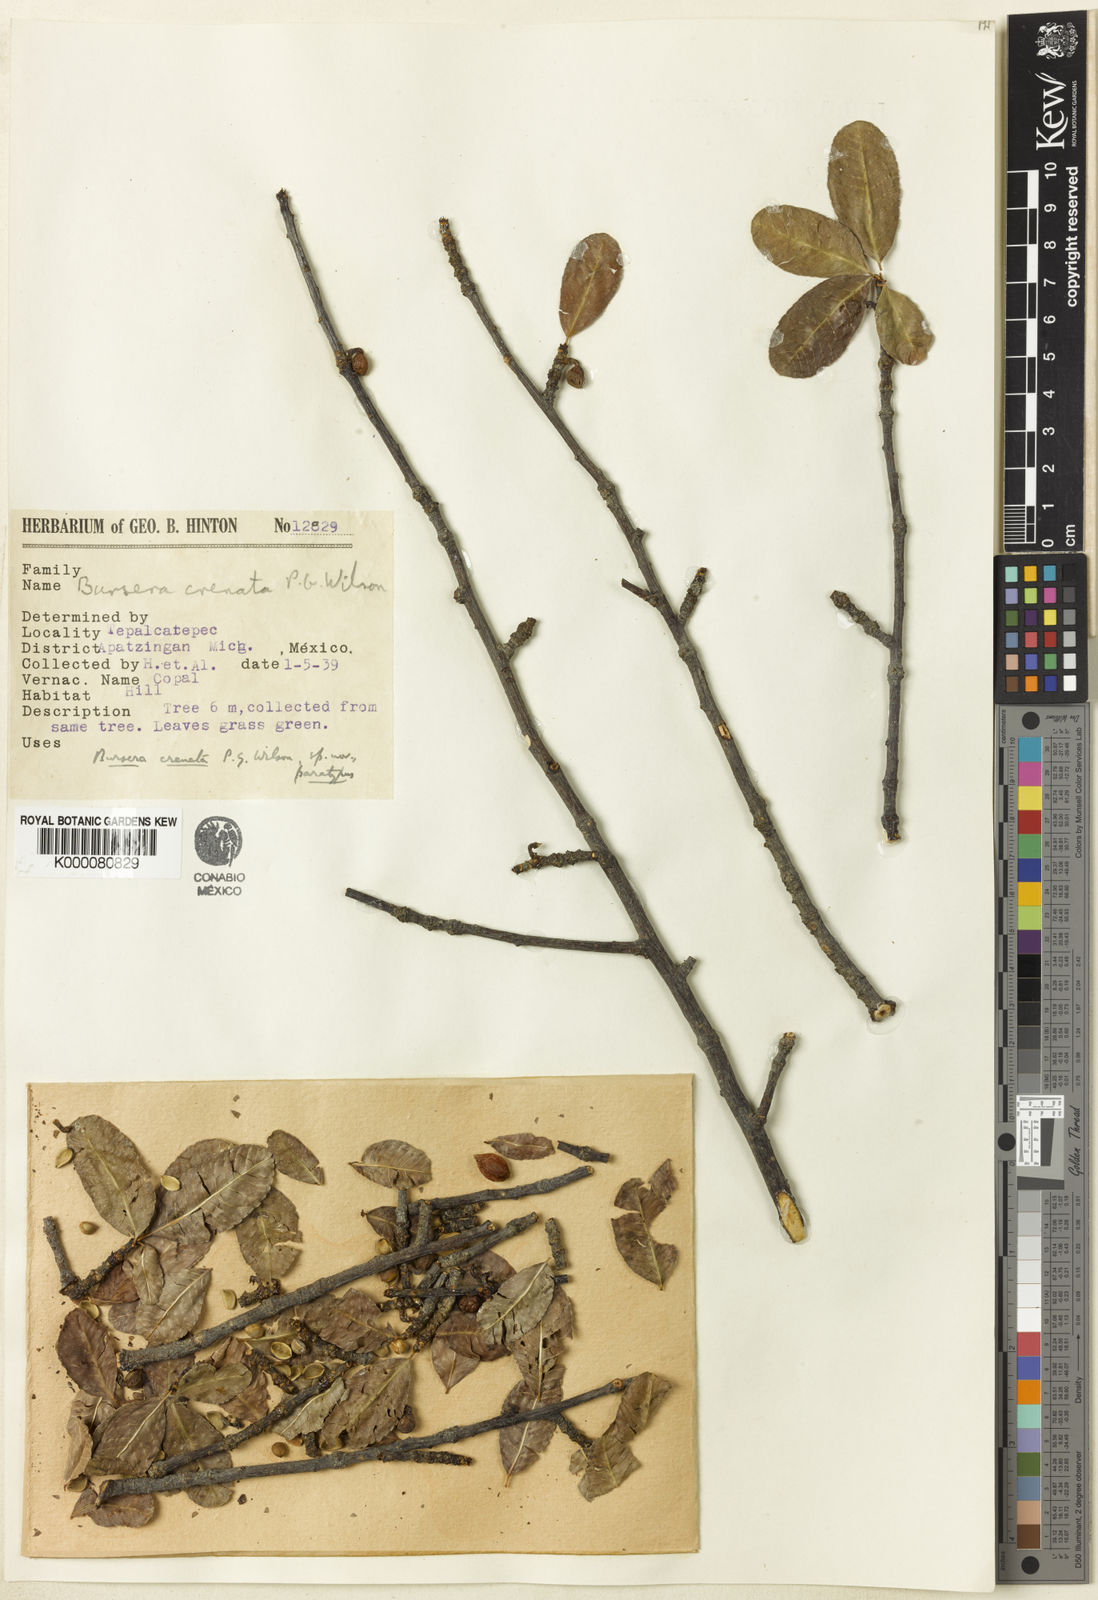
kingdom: Plantae
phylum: Tracheophyta
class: Magnoliopsida
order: Sapindales
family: Burseraceae
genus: Bursera
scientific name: Bursera crenata
